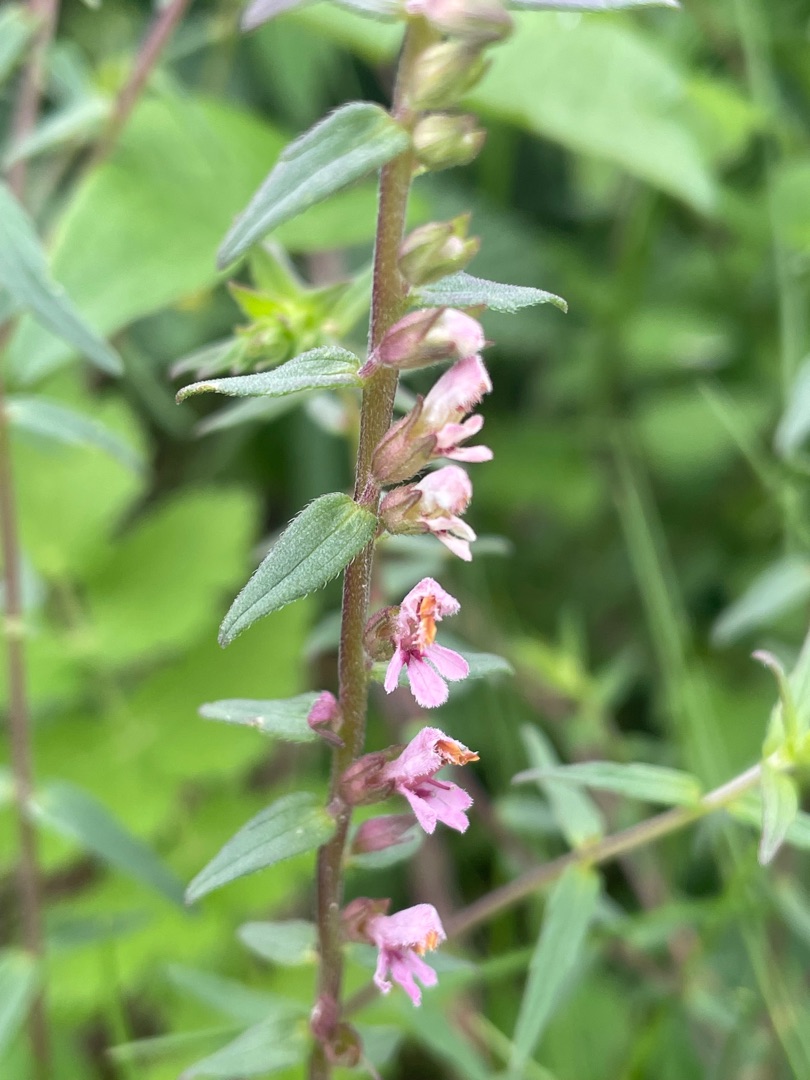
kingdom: Plantae
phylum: Tracheophyta
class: Magnoliopsida
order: Lamiales
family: Orobanchaceae
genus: Odontites
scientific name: Odontites vernus
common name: Mark-rødtop
